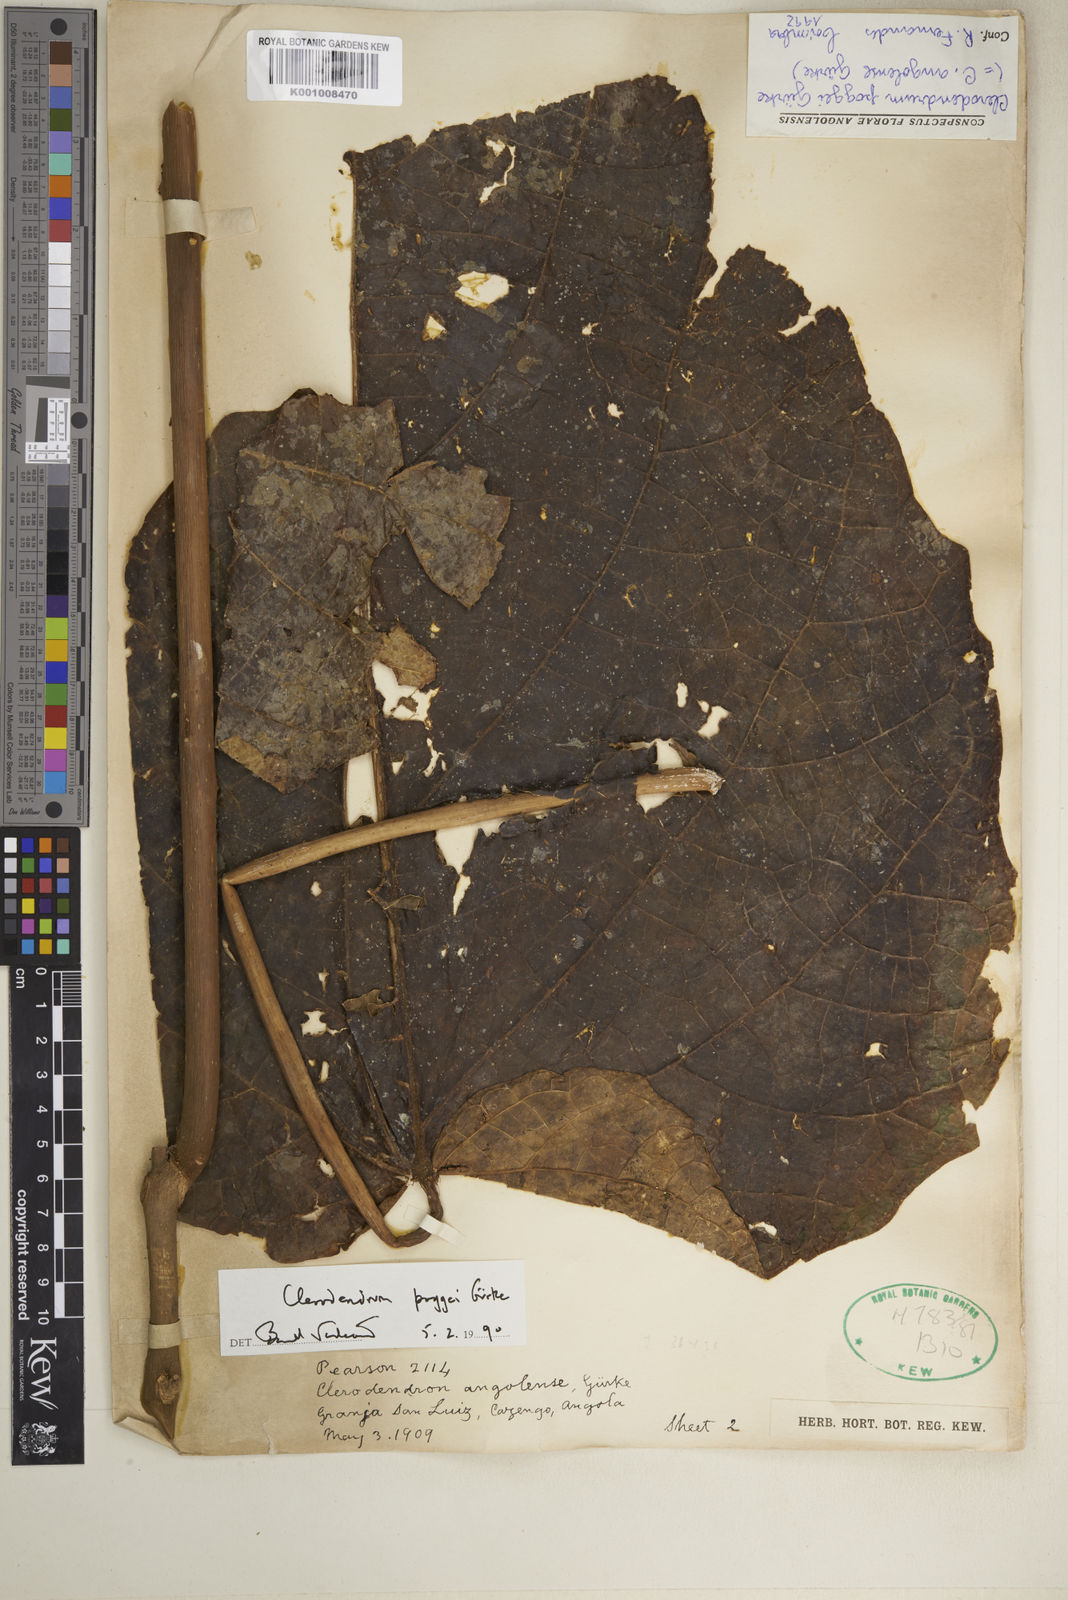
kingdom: Plantae
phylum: Tracheophyta
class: Magnoliopsida
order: Lamiales
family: Lamiaceae
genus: Clerodendrum
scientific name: Clerodendrum
